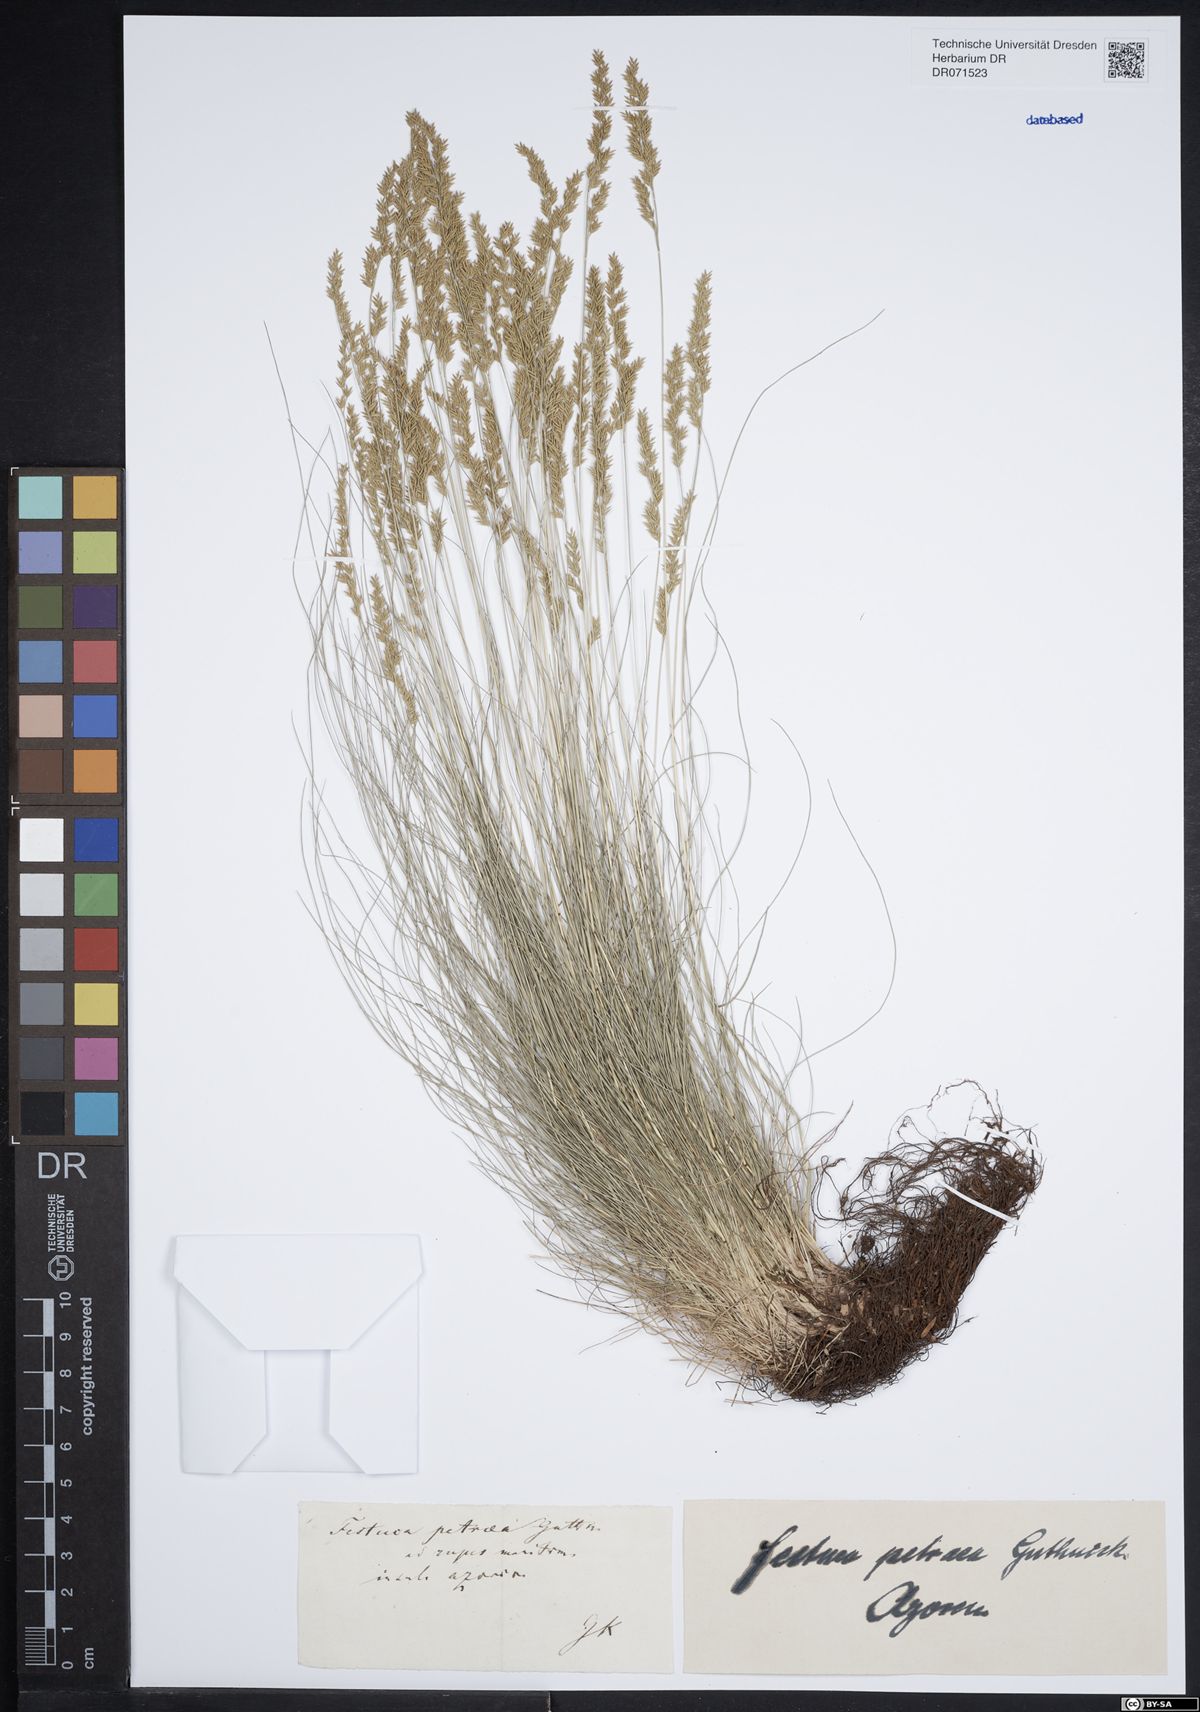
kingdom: Plantae
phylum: Tracheophyta
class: Liliopsida
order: Poales
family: Poaceae
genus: Festuca
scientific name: Festuca petraea
